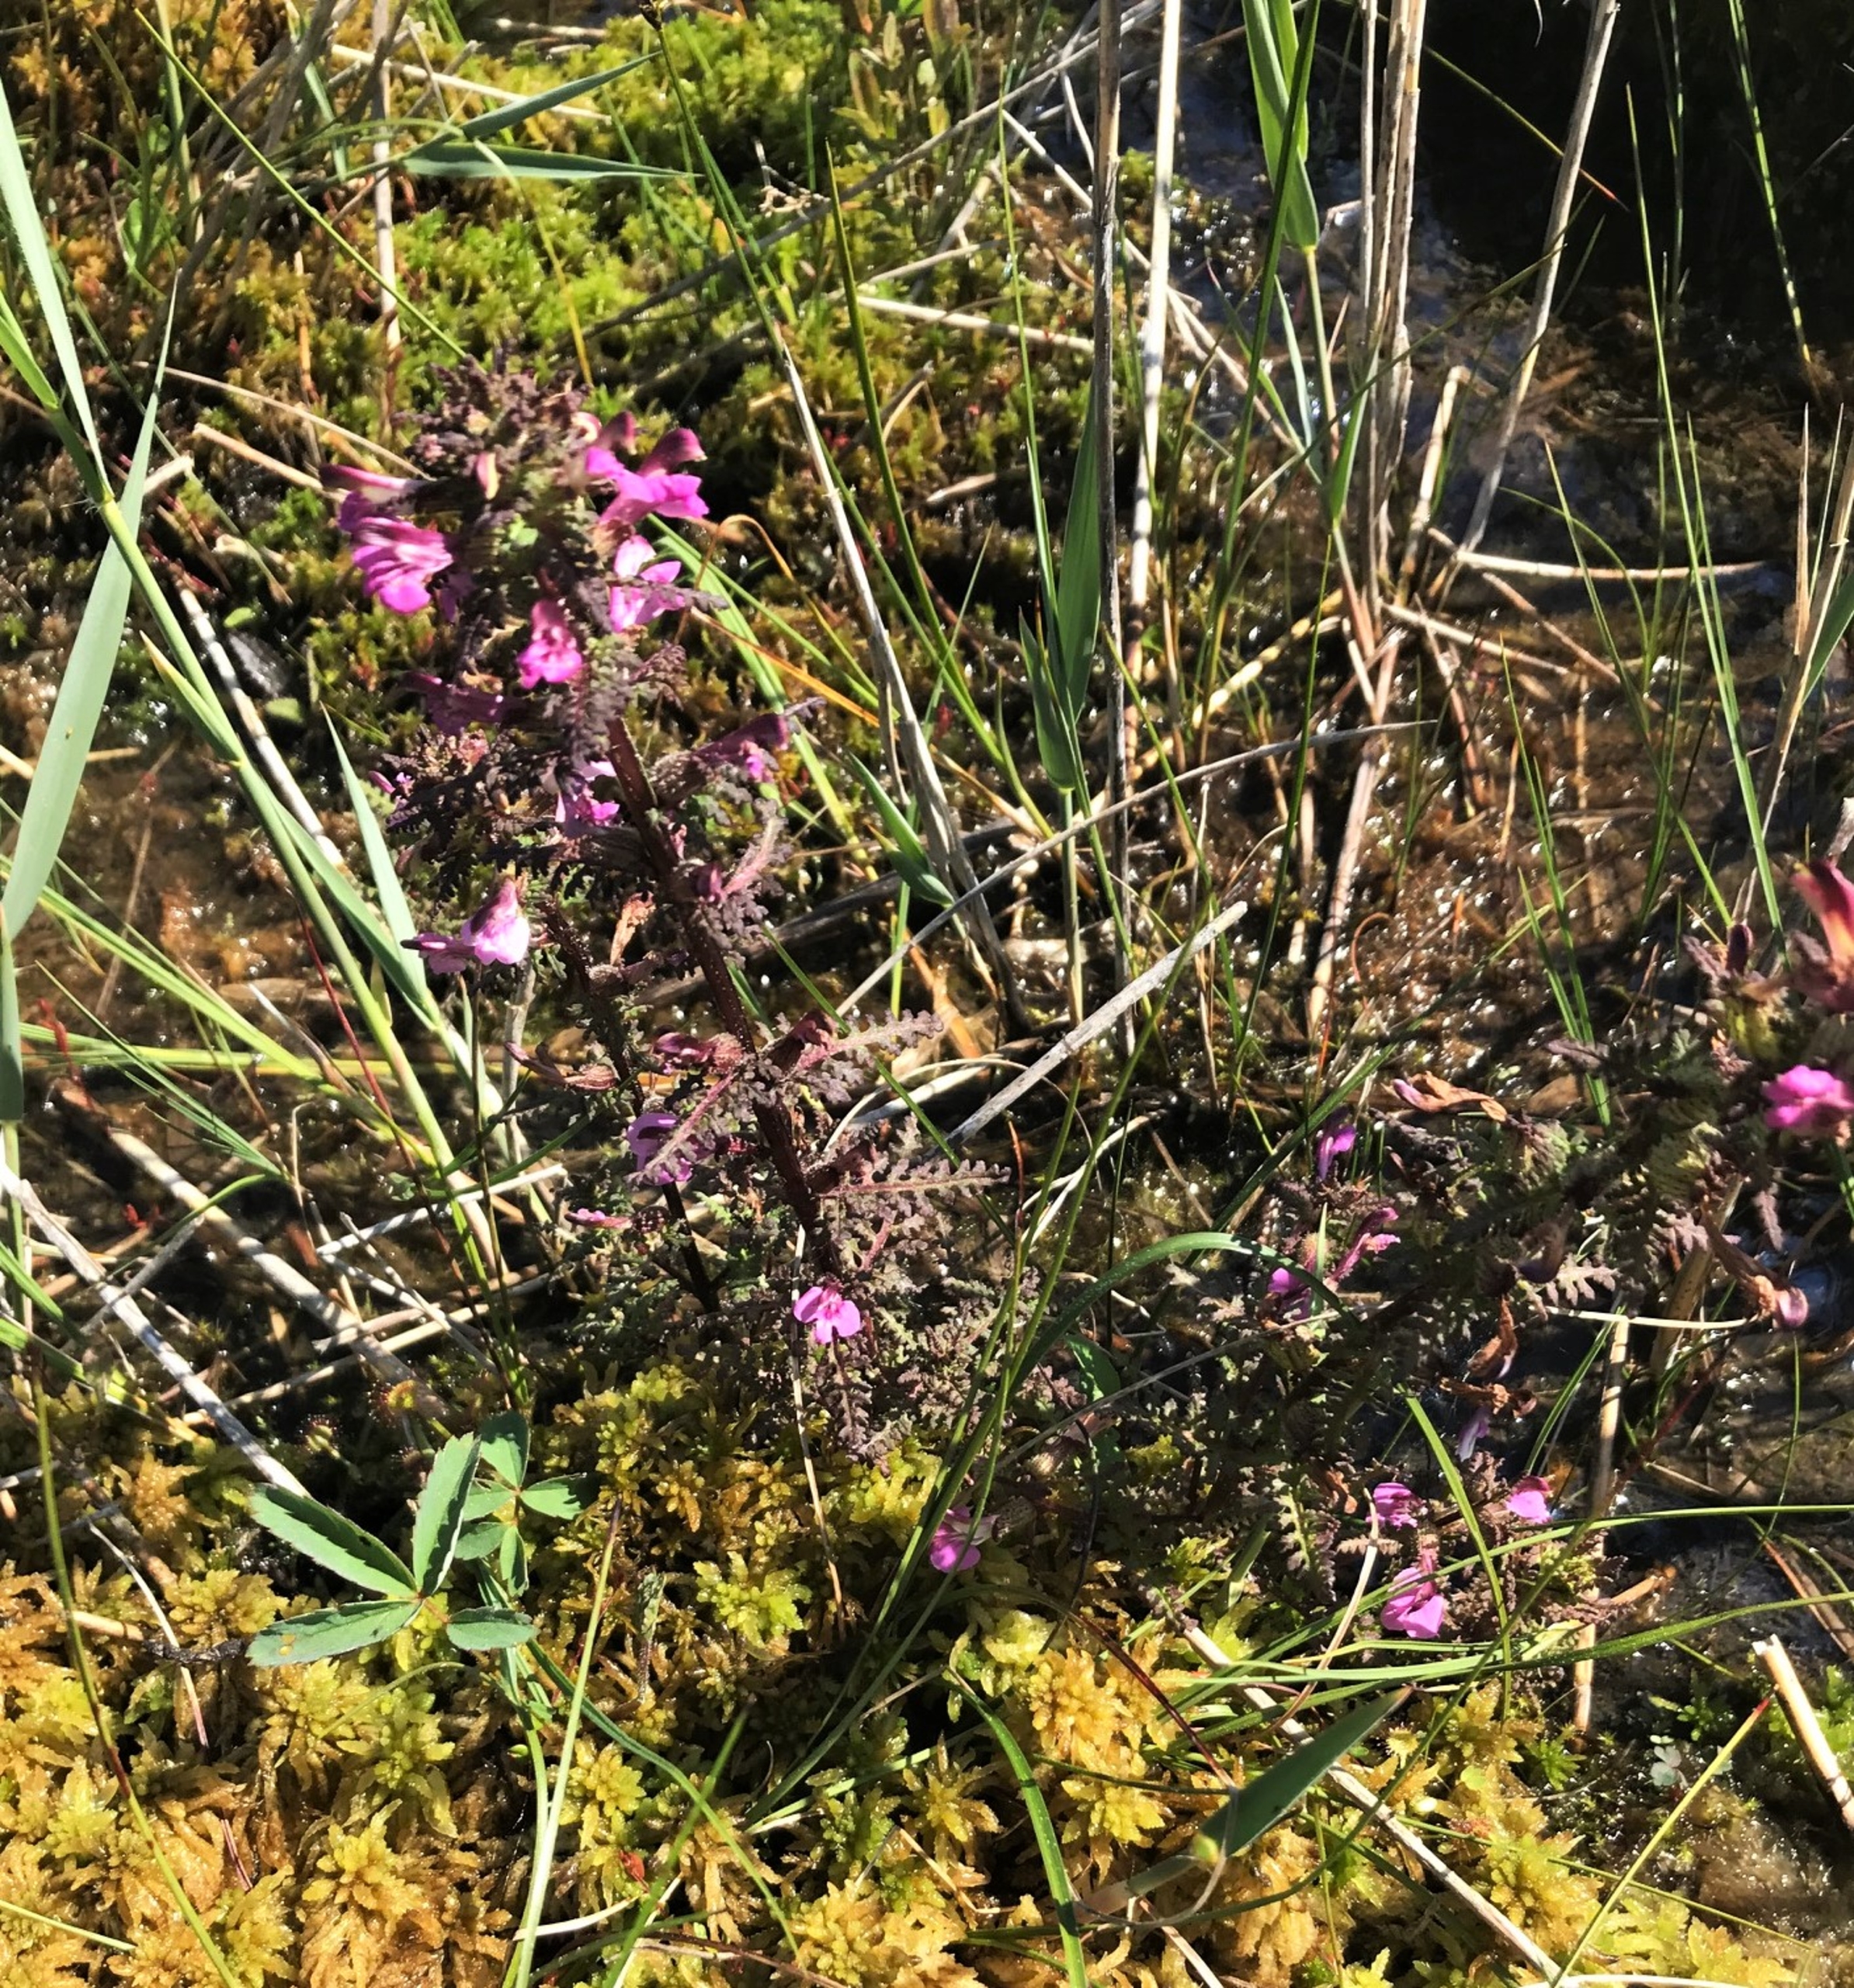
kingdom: Plantae
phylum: Tracheophyta
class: Magnoliopsida
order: Lamiales
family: Orobanchaceae
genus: Pedicularis
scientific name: Pedicularis palustris
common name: Eng-troldurt
